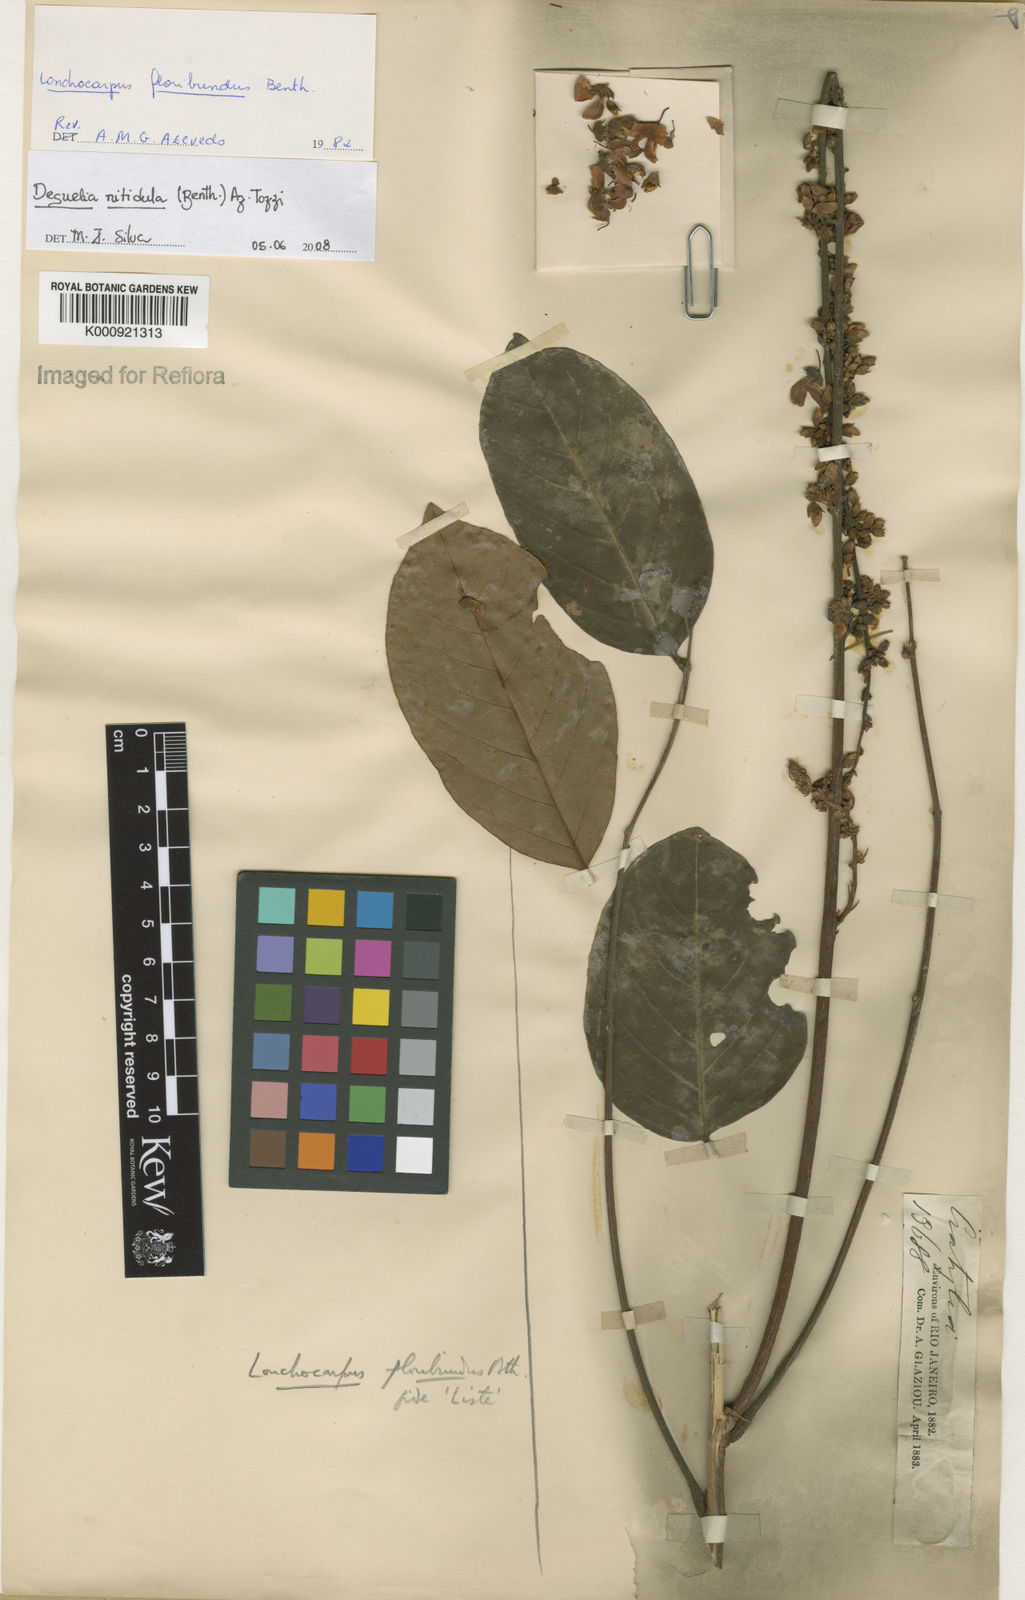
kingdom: Plantae
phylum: Tracheophyta
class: Magnoliopsida
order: Fabales
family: Fabaceae
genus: Deguelia
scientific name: Deguelia nitidula
